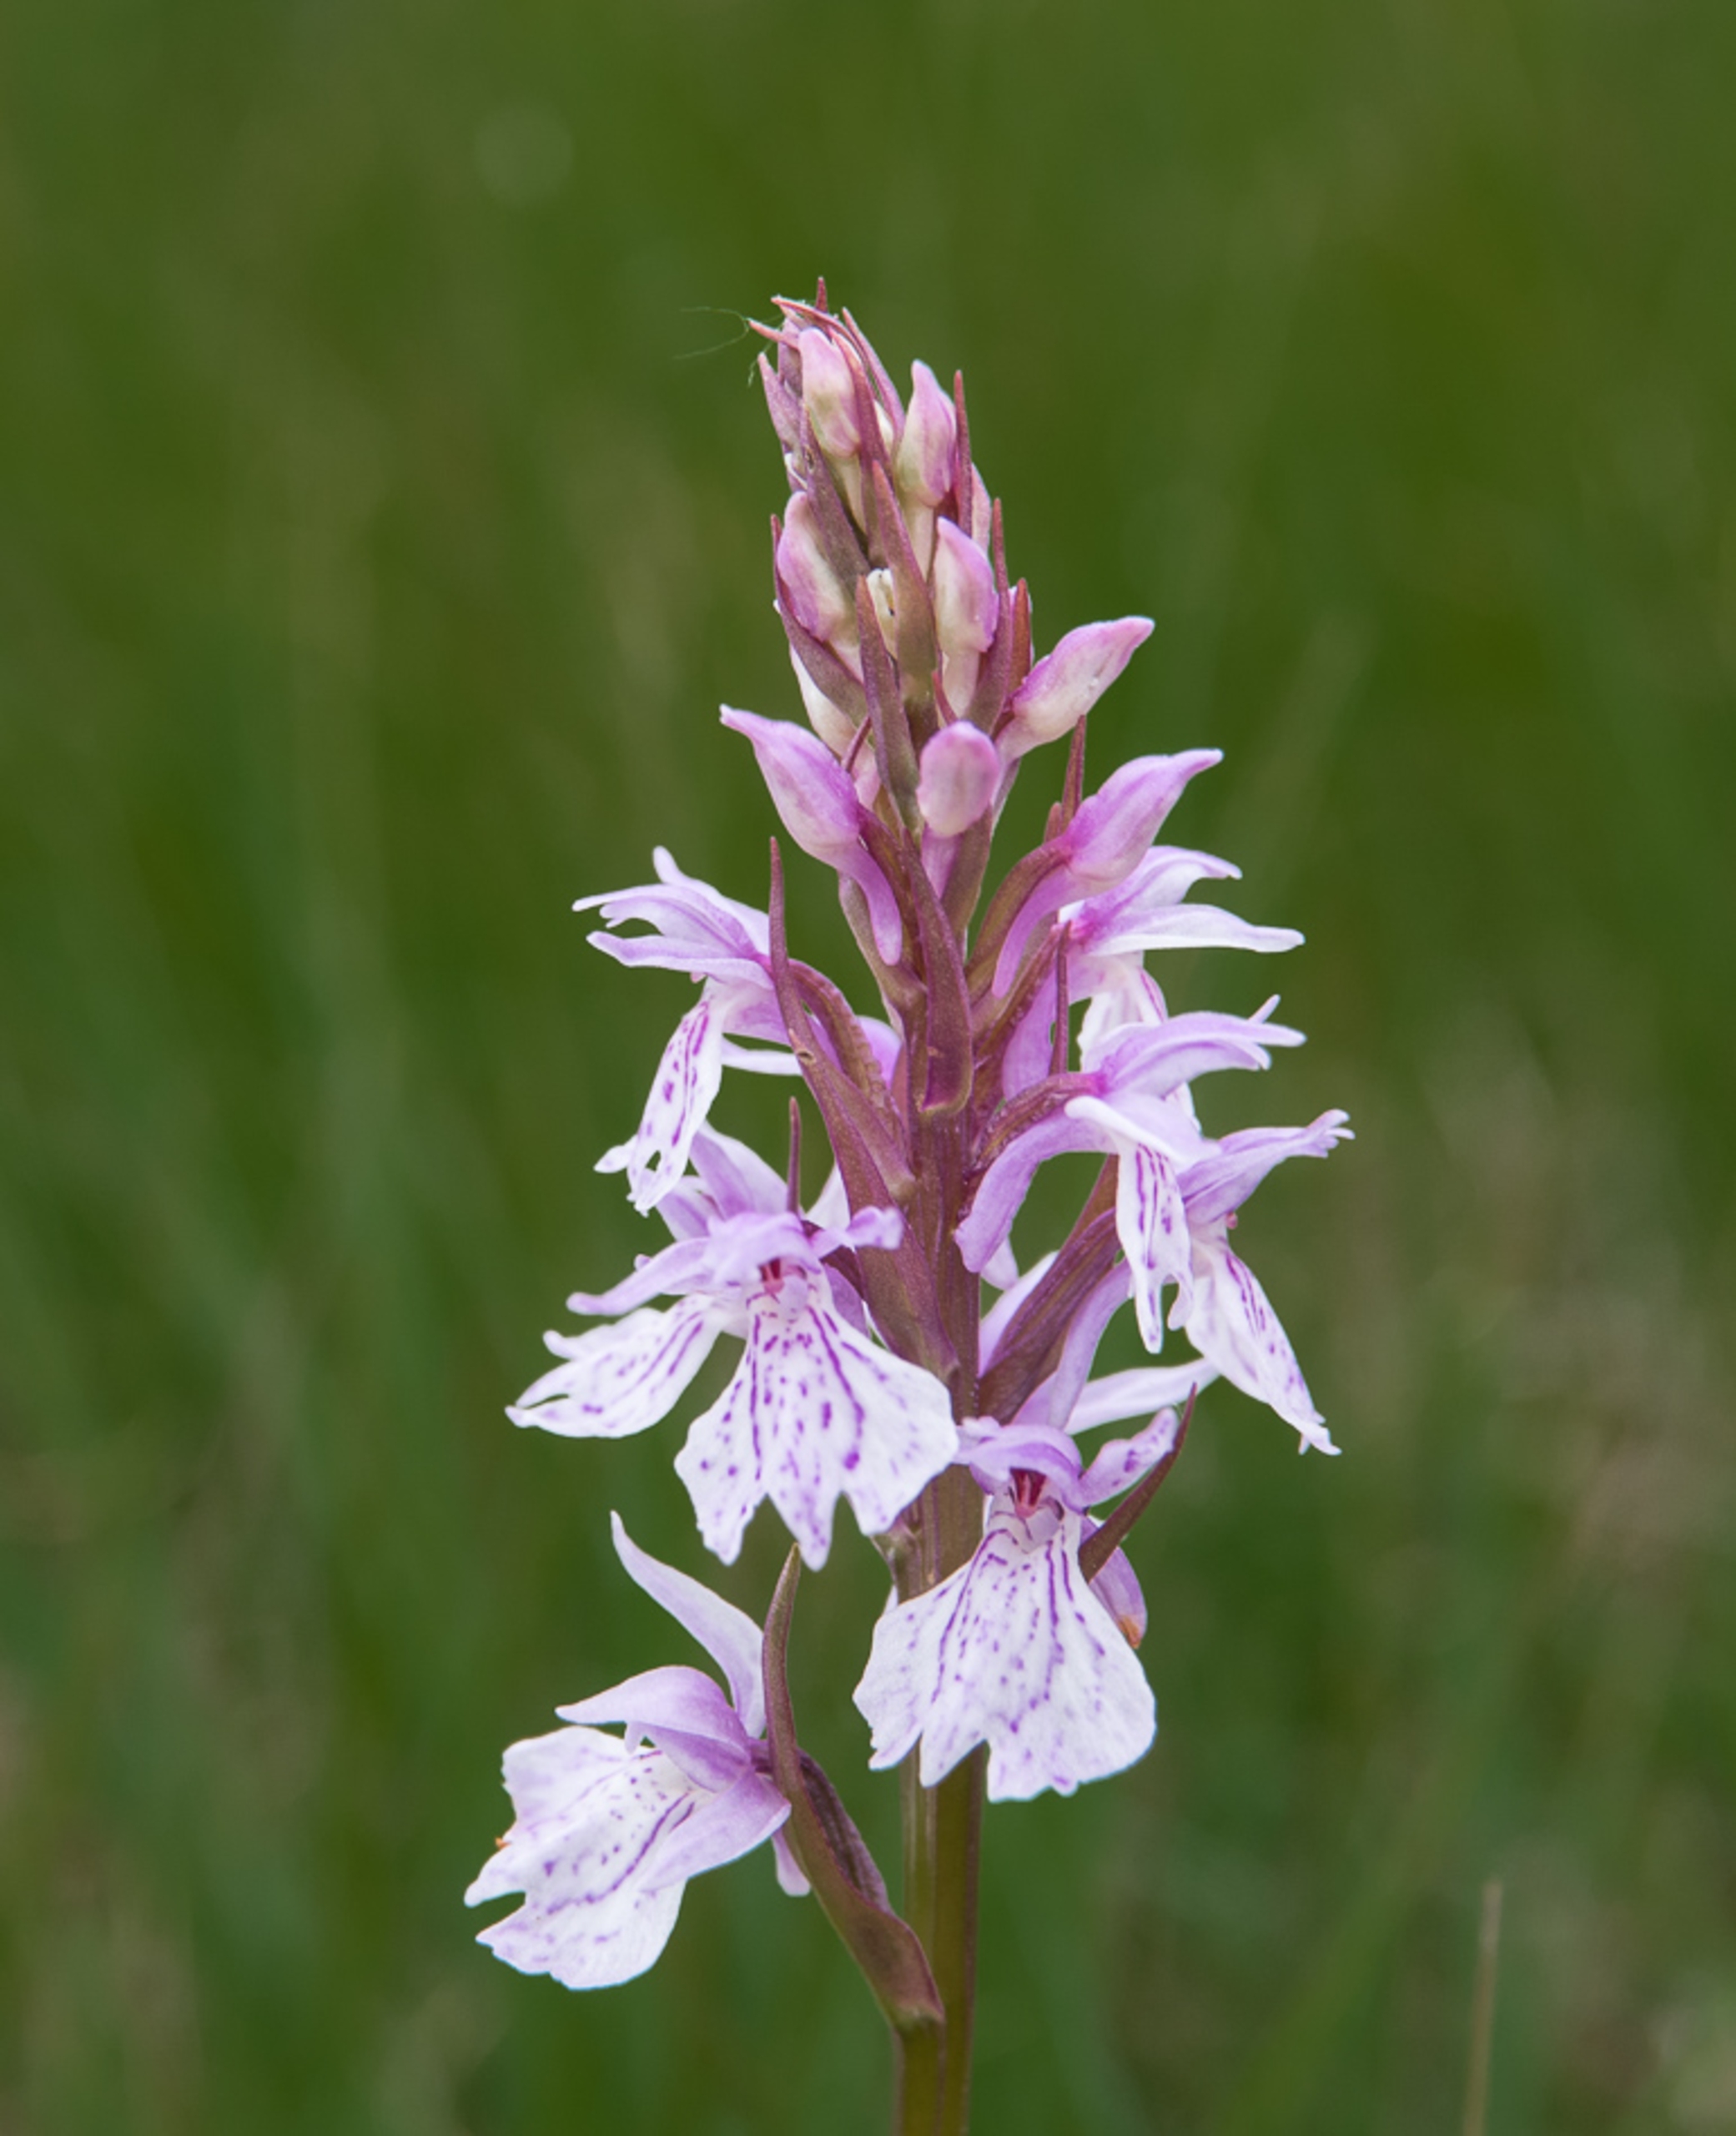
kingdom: Plantae
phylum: Tracheophyta
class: Liliopsida
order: Asparagales
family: Orchidaceae
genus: Dactylorhiza
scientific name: Dactylorhiza maculata
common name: Plettet gøgeurt
